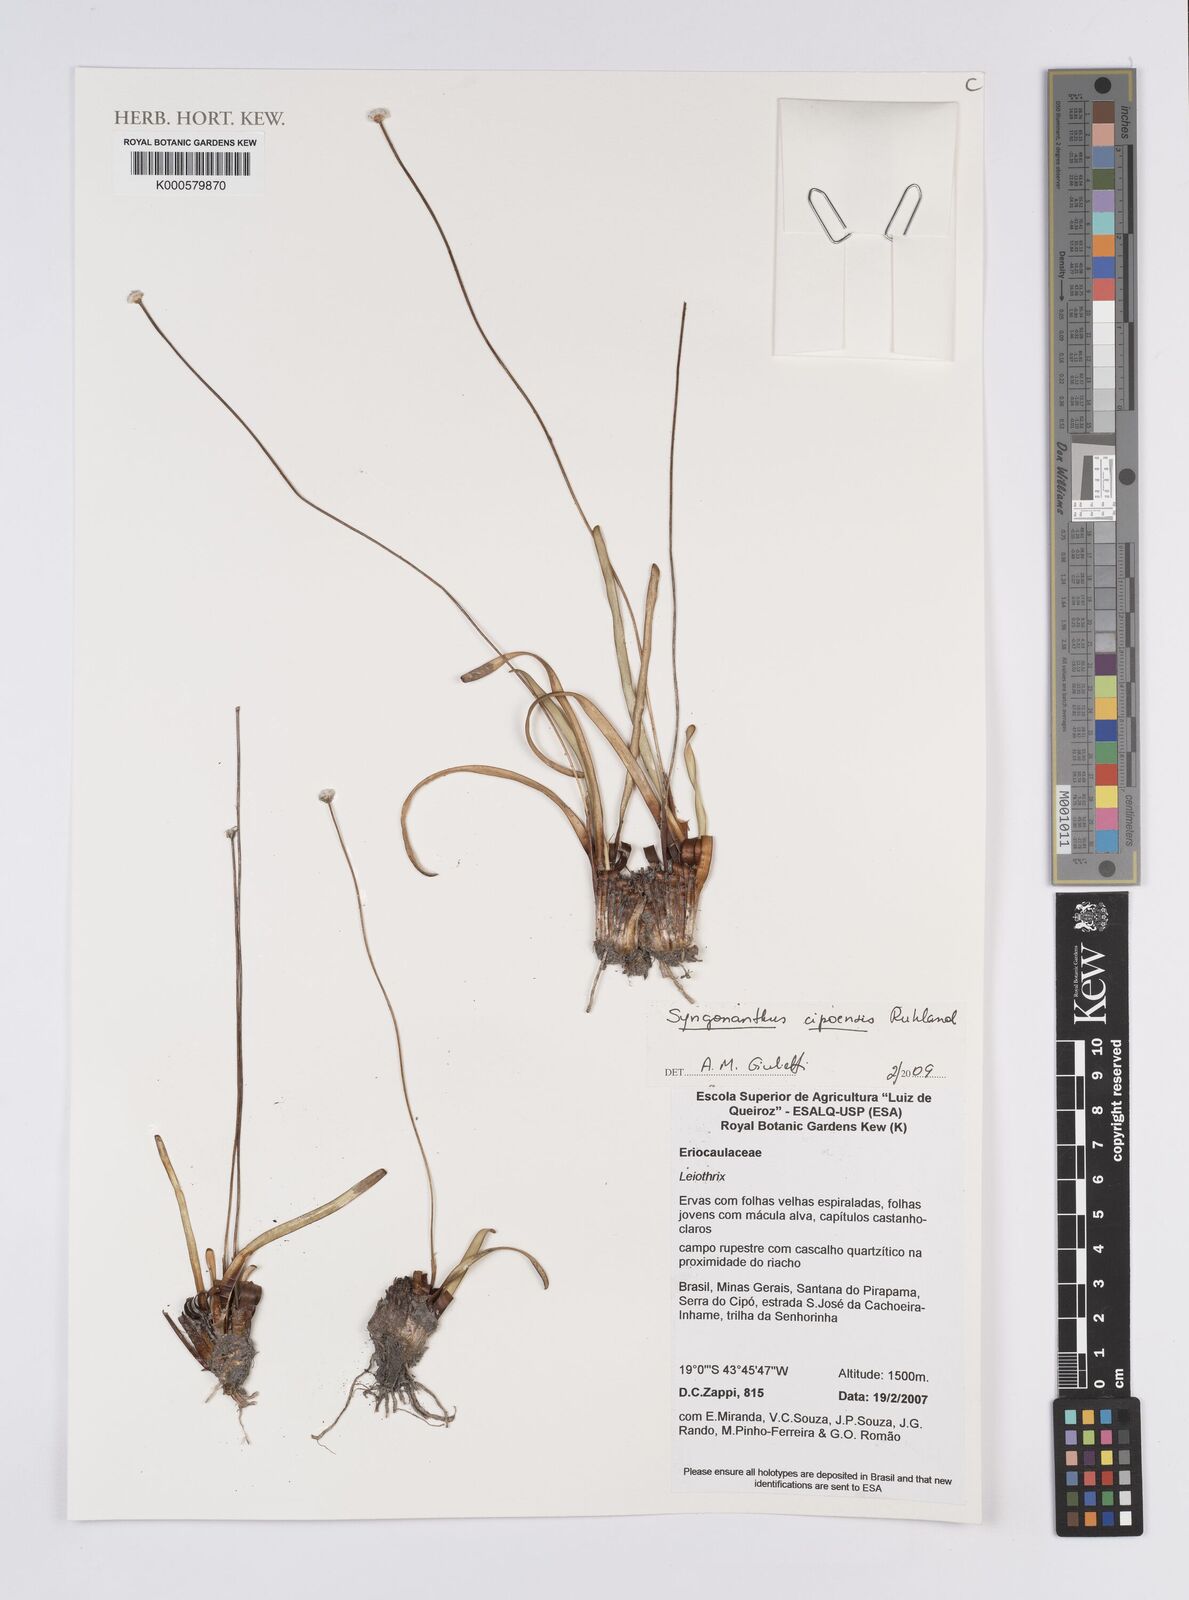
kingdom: Plantae
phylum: Tracheophyta
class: Liliopsida
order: Poales
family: Eriocaulaceae
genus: Comanthera
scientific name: Comanthera cipoensis
